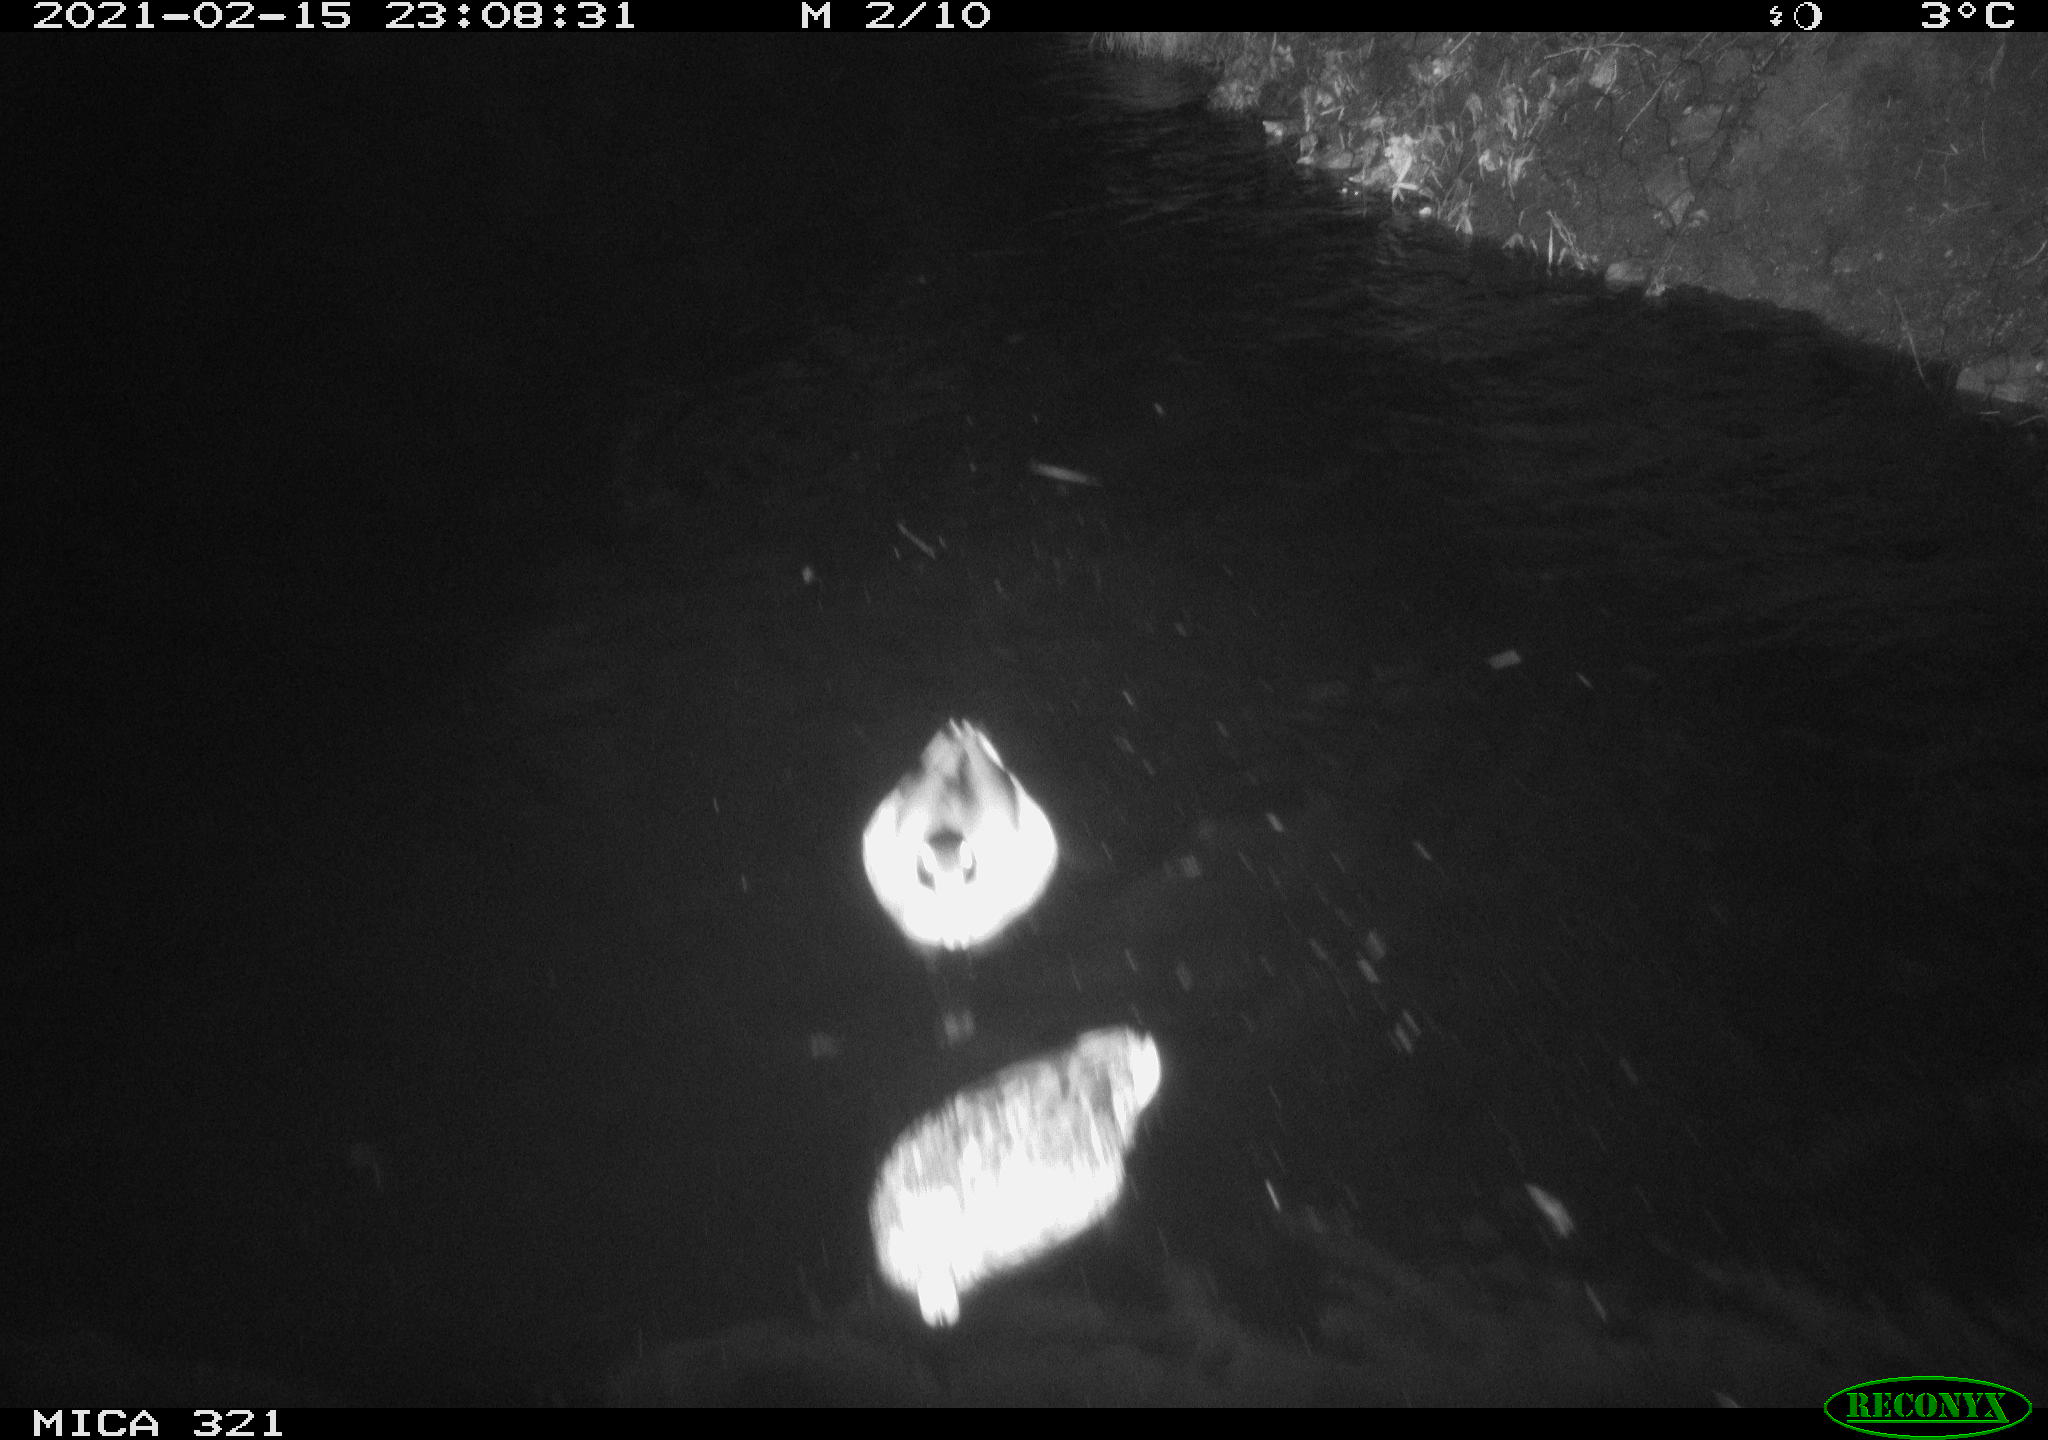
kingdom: Animalia
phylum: Chordata
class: Aves
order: Anseriformes
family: Anatidae
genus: Anas
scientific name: Anas platyrhynchos
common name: Mallard
